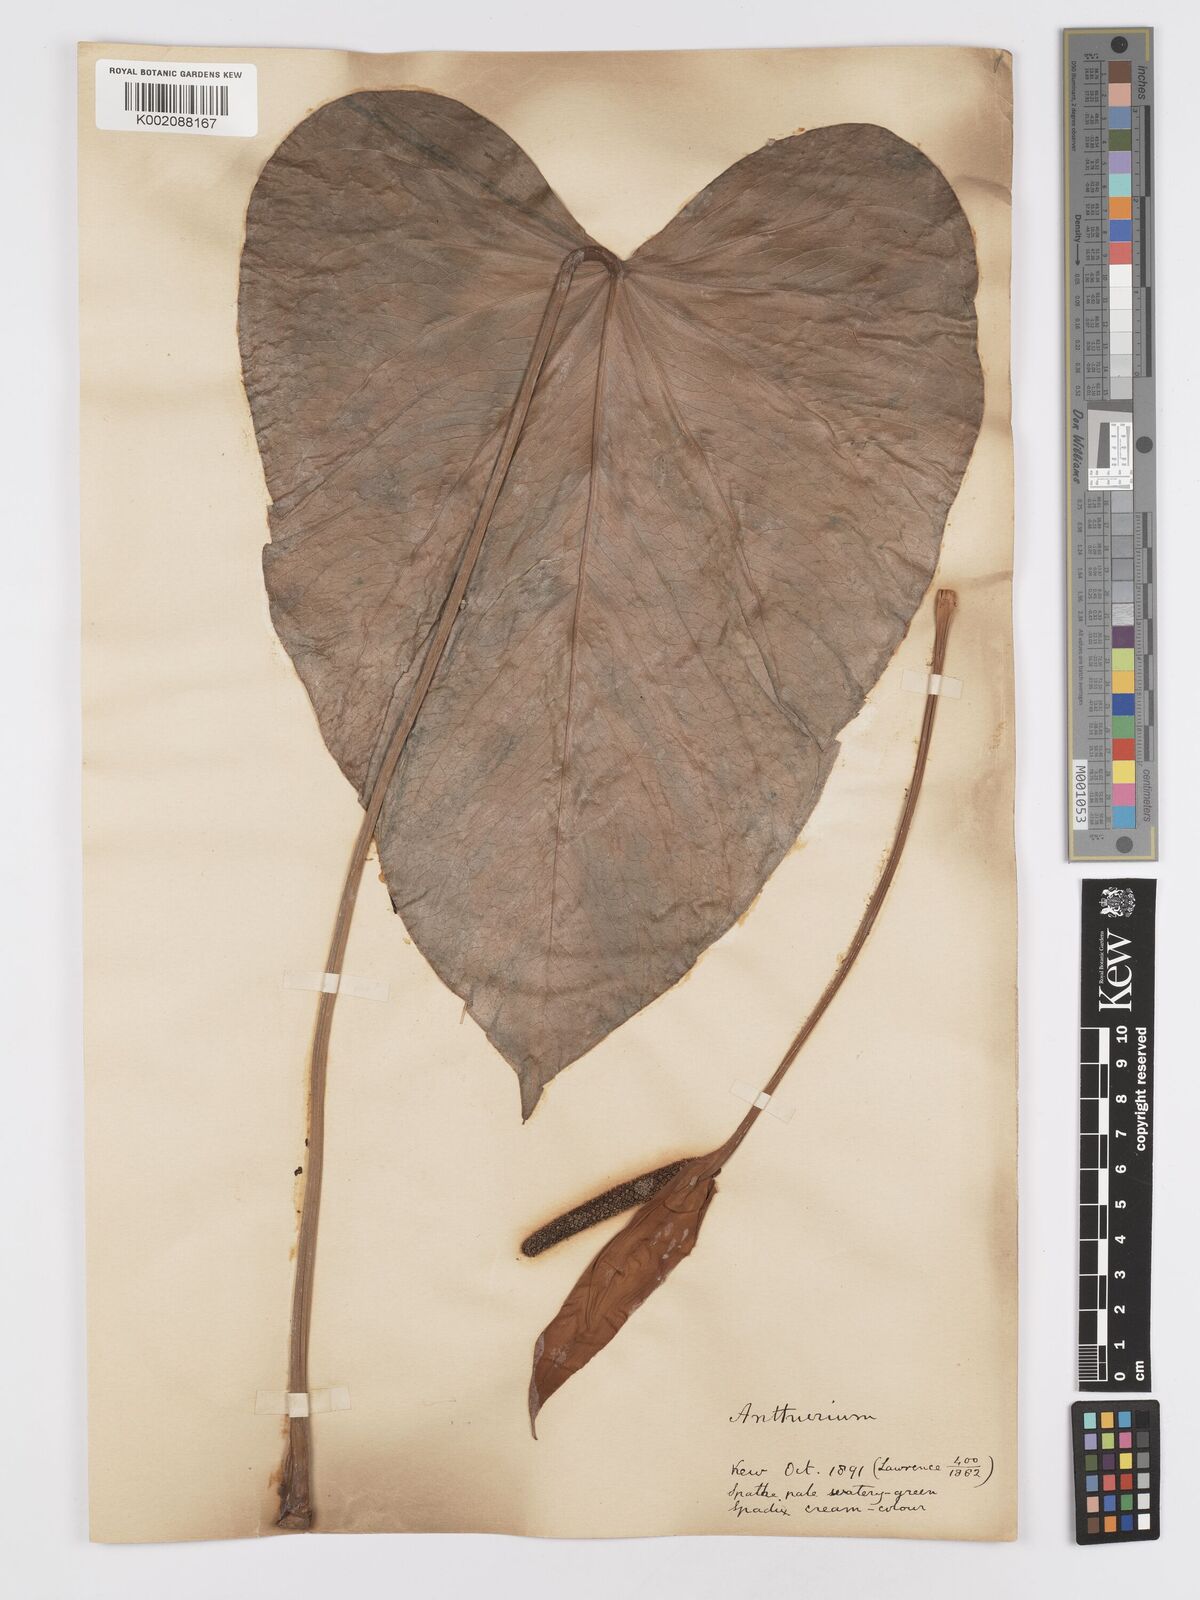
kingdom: Plantae
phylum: Tracheophyta
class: Liliopsida
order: Alismatales
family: Araceae
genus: Anthurium
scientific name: Anthurium
